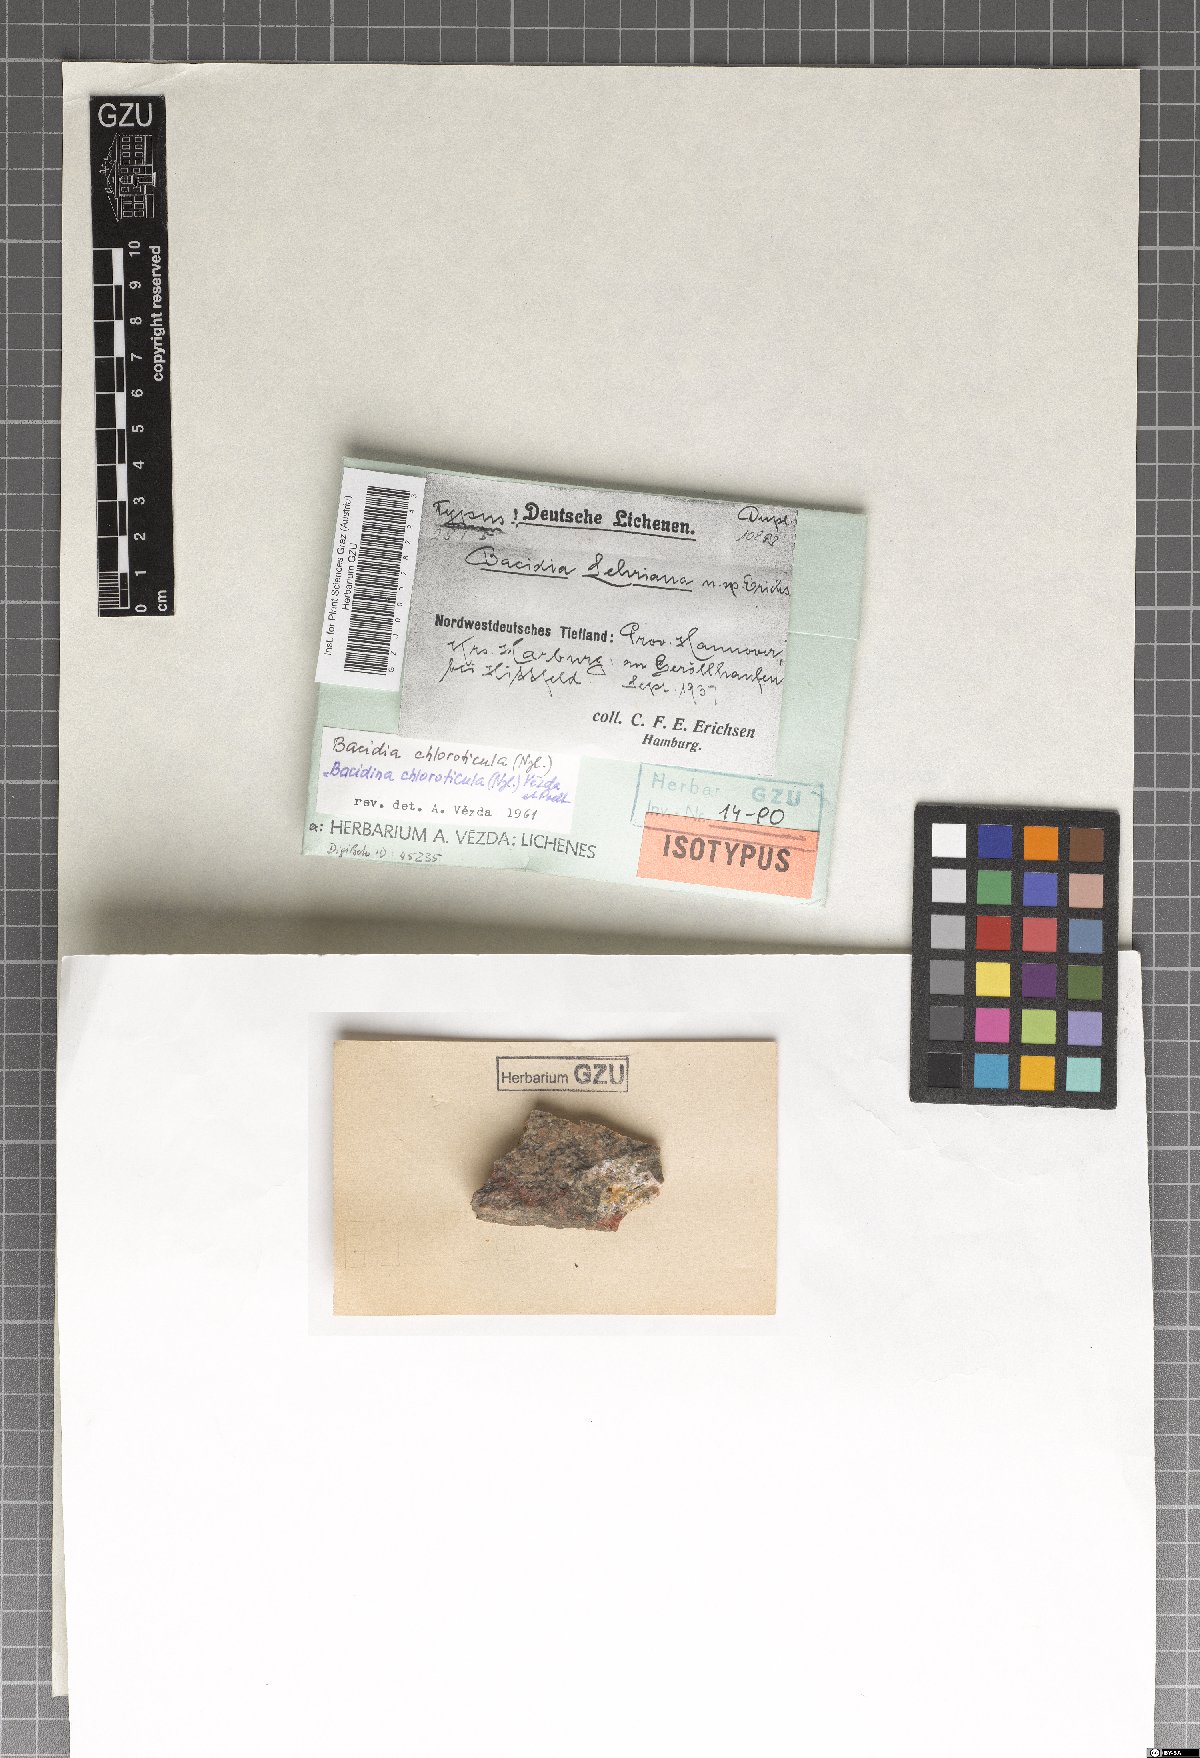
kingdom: Fungi
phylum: Ascomycota
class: Lecanoromycetes
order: Lecanorales
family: Ramalinaceae
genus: Bacidina
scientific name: Bacidina chloroticula
